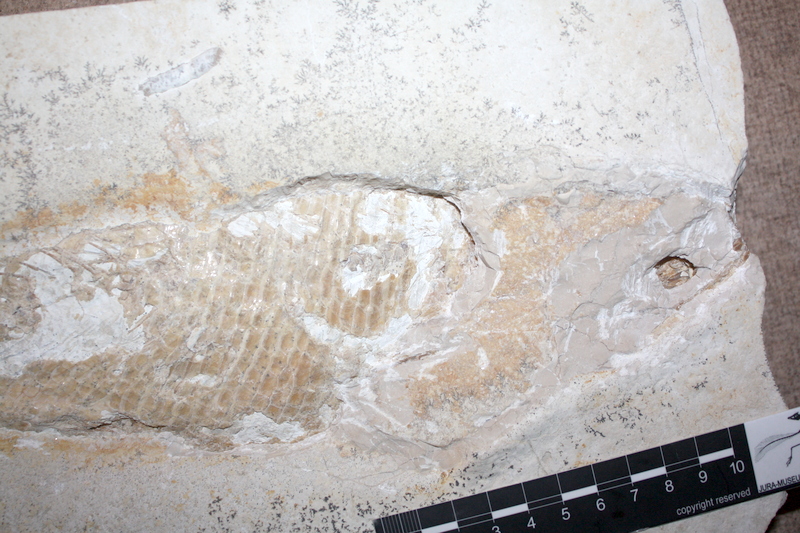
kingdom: Animalia
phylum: Chordata
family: Ankylophoridae
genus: Siemensichthys
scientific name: Siemensichthys macrocephalus
